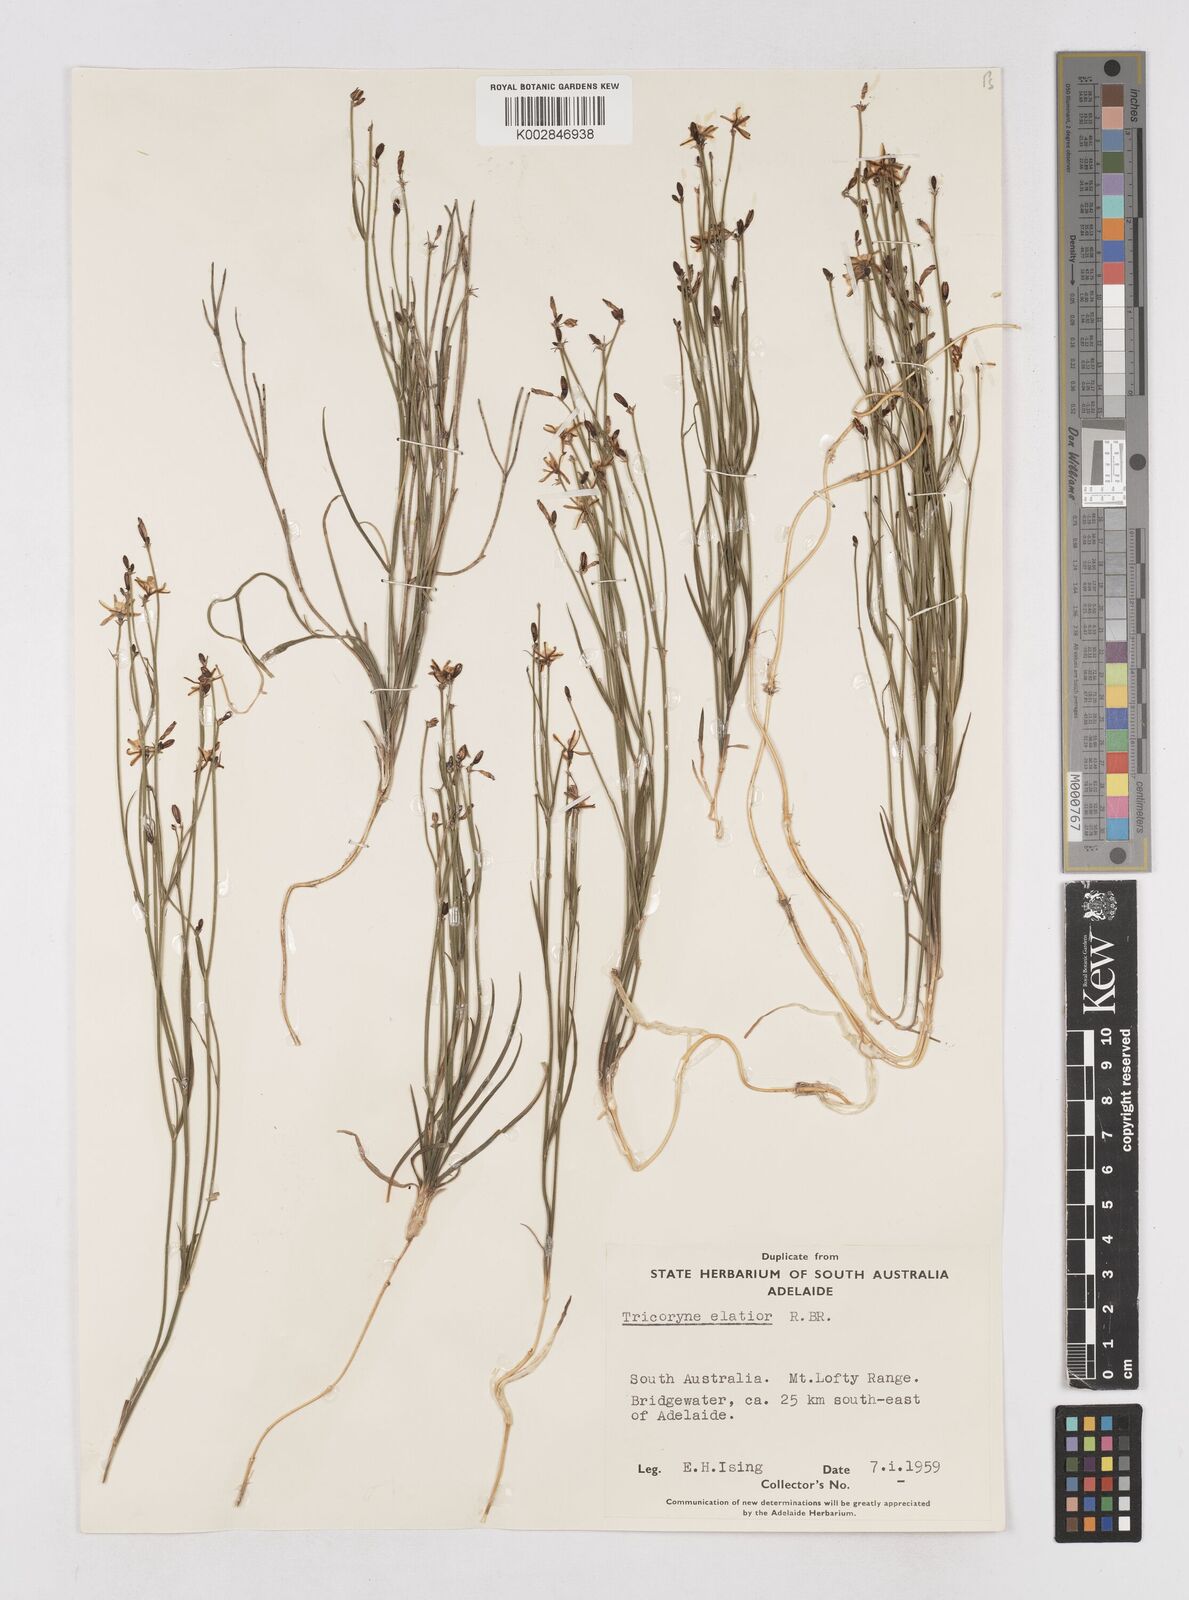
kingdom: Plantae
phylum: Tracheophyta
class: Liliopsida
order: Asparagales
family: Asphodelaceae
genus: Tricoryne
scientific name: Tricoryne elatior
